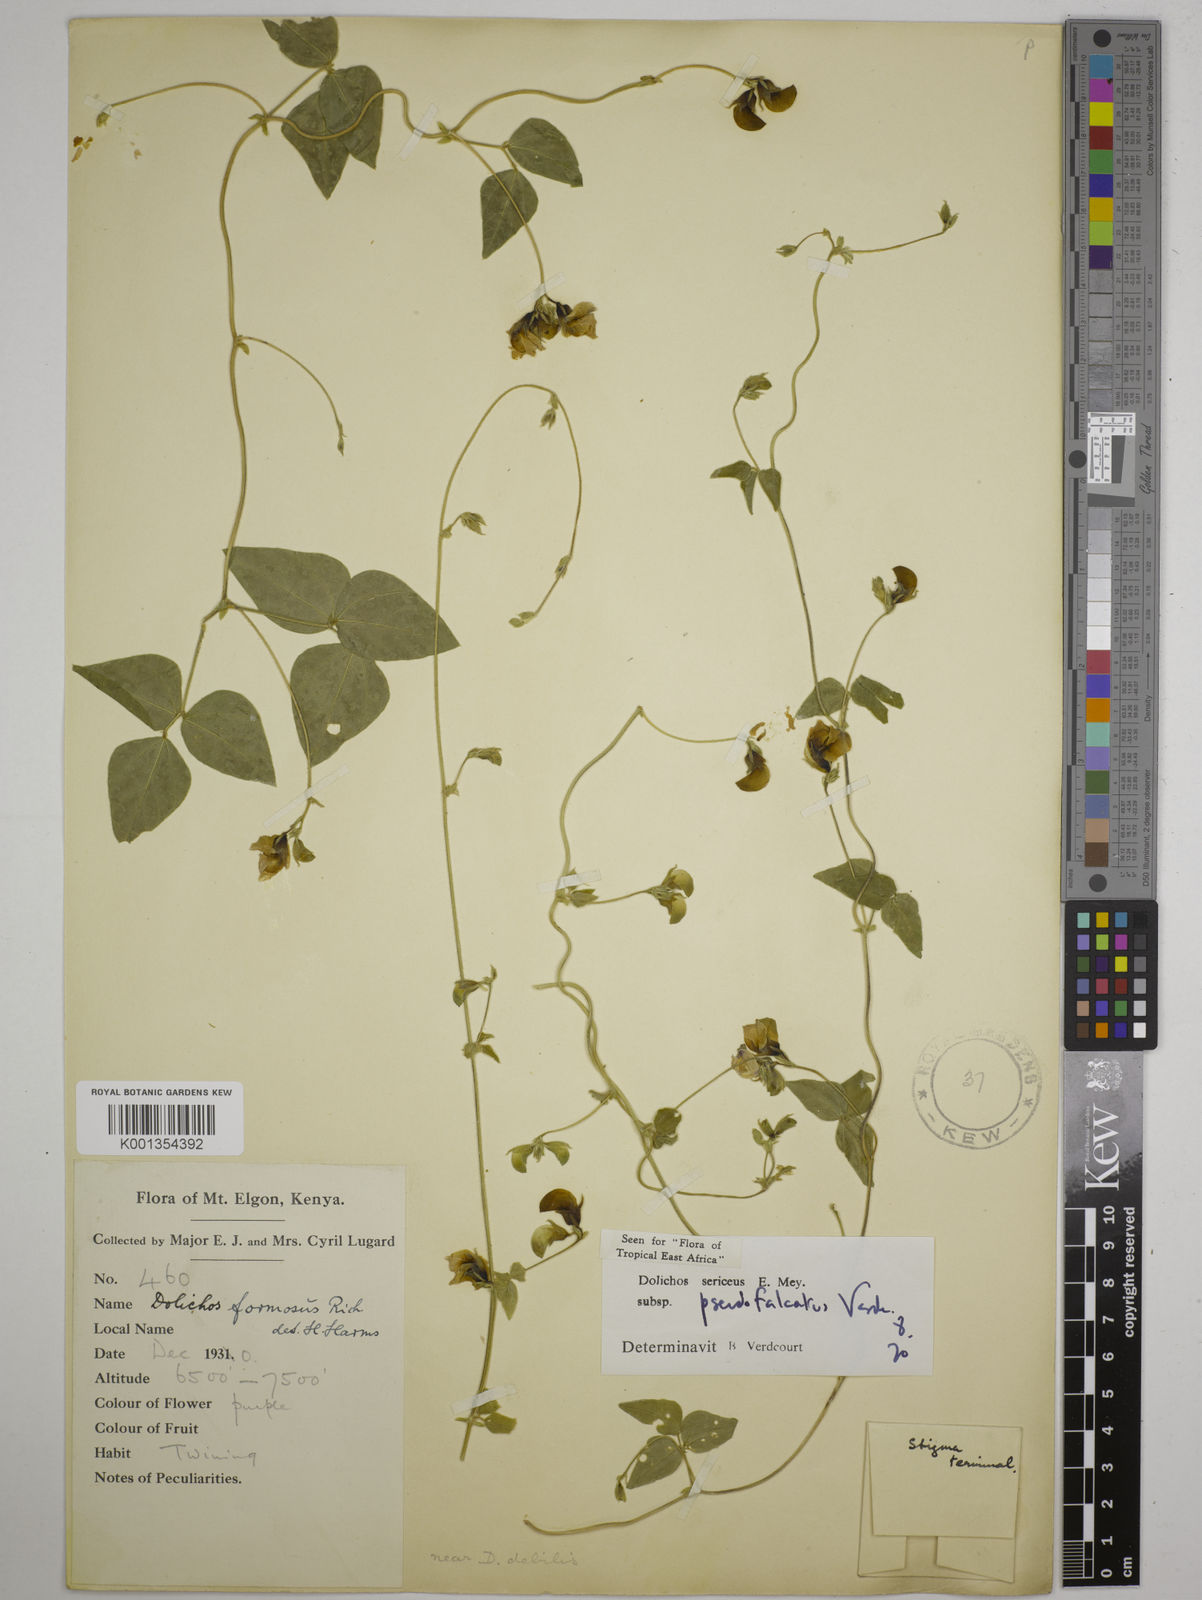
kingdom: Plantae
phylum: Tracheophyta
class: Magnoliopsida
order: Fabales
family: Fabaceae
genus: Dolichos
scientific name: Dolichos
